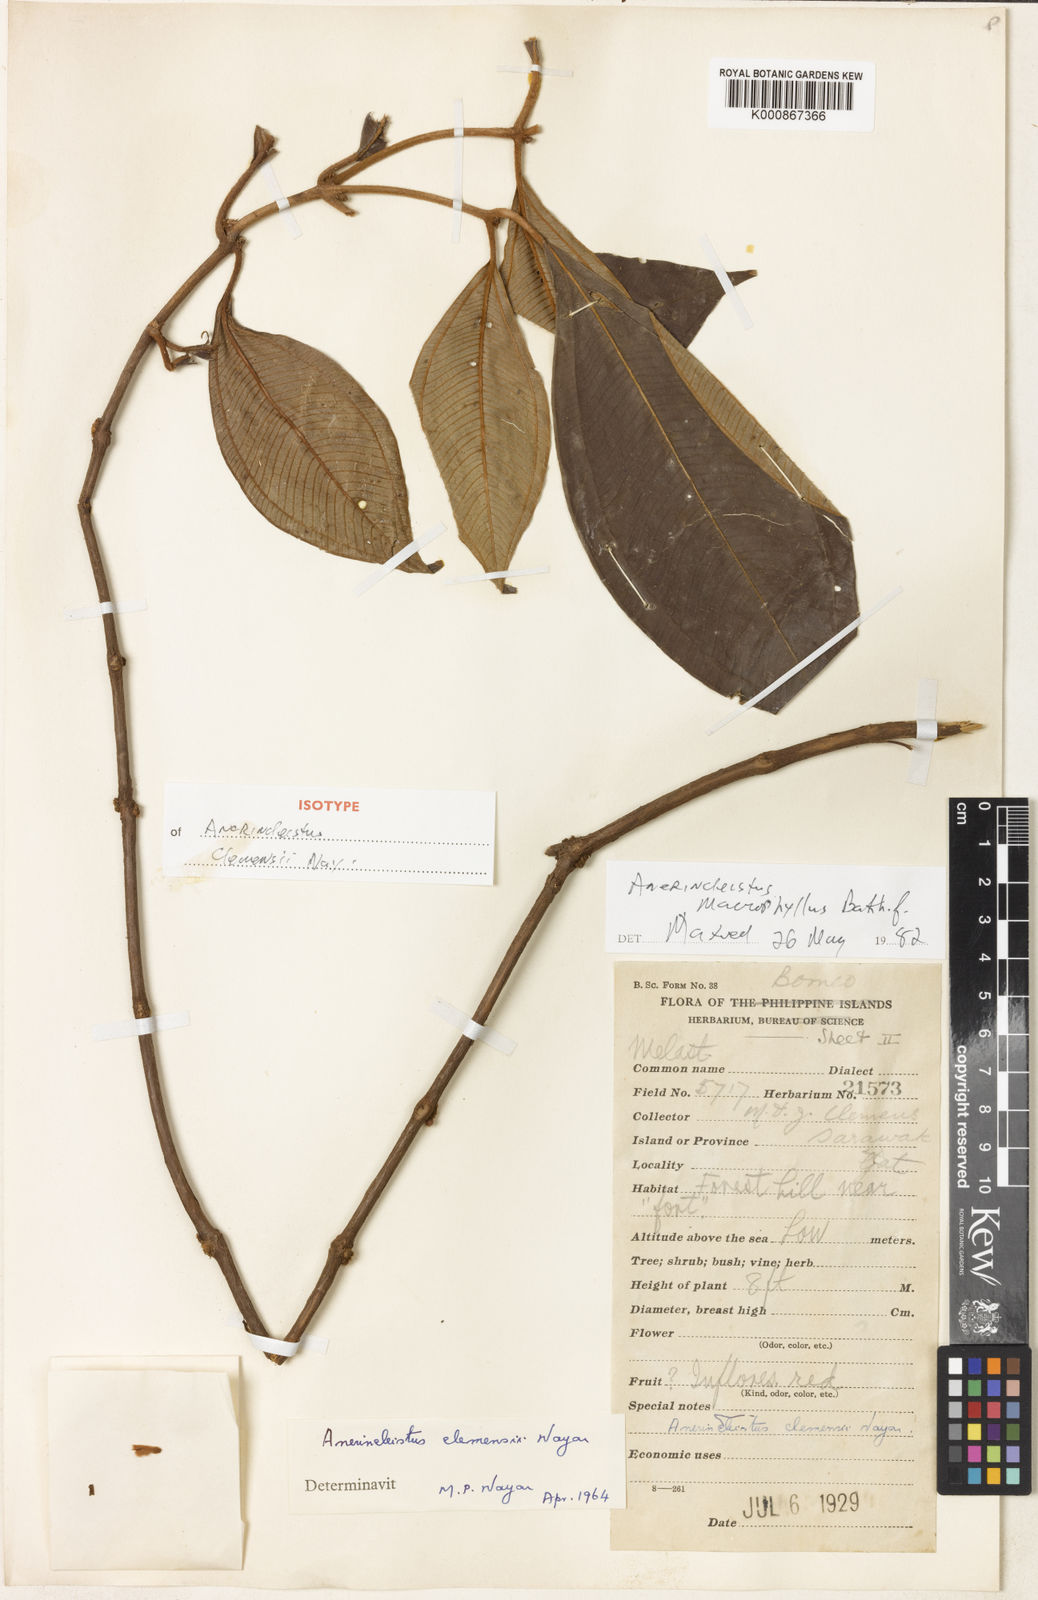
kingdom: Plantae
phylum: Tracheophyta
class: Magnoliopsida
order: Myrtales
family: Melastomataceae
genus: Anerincleistus
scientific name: Anerincleistus macrophyllus
